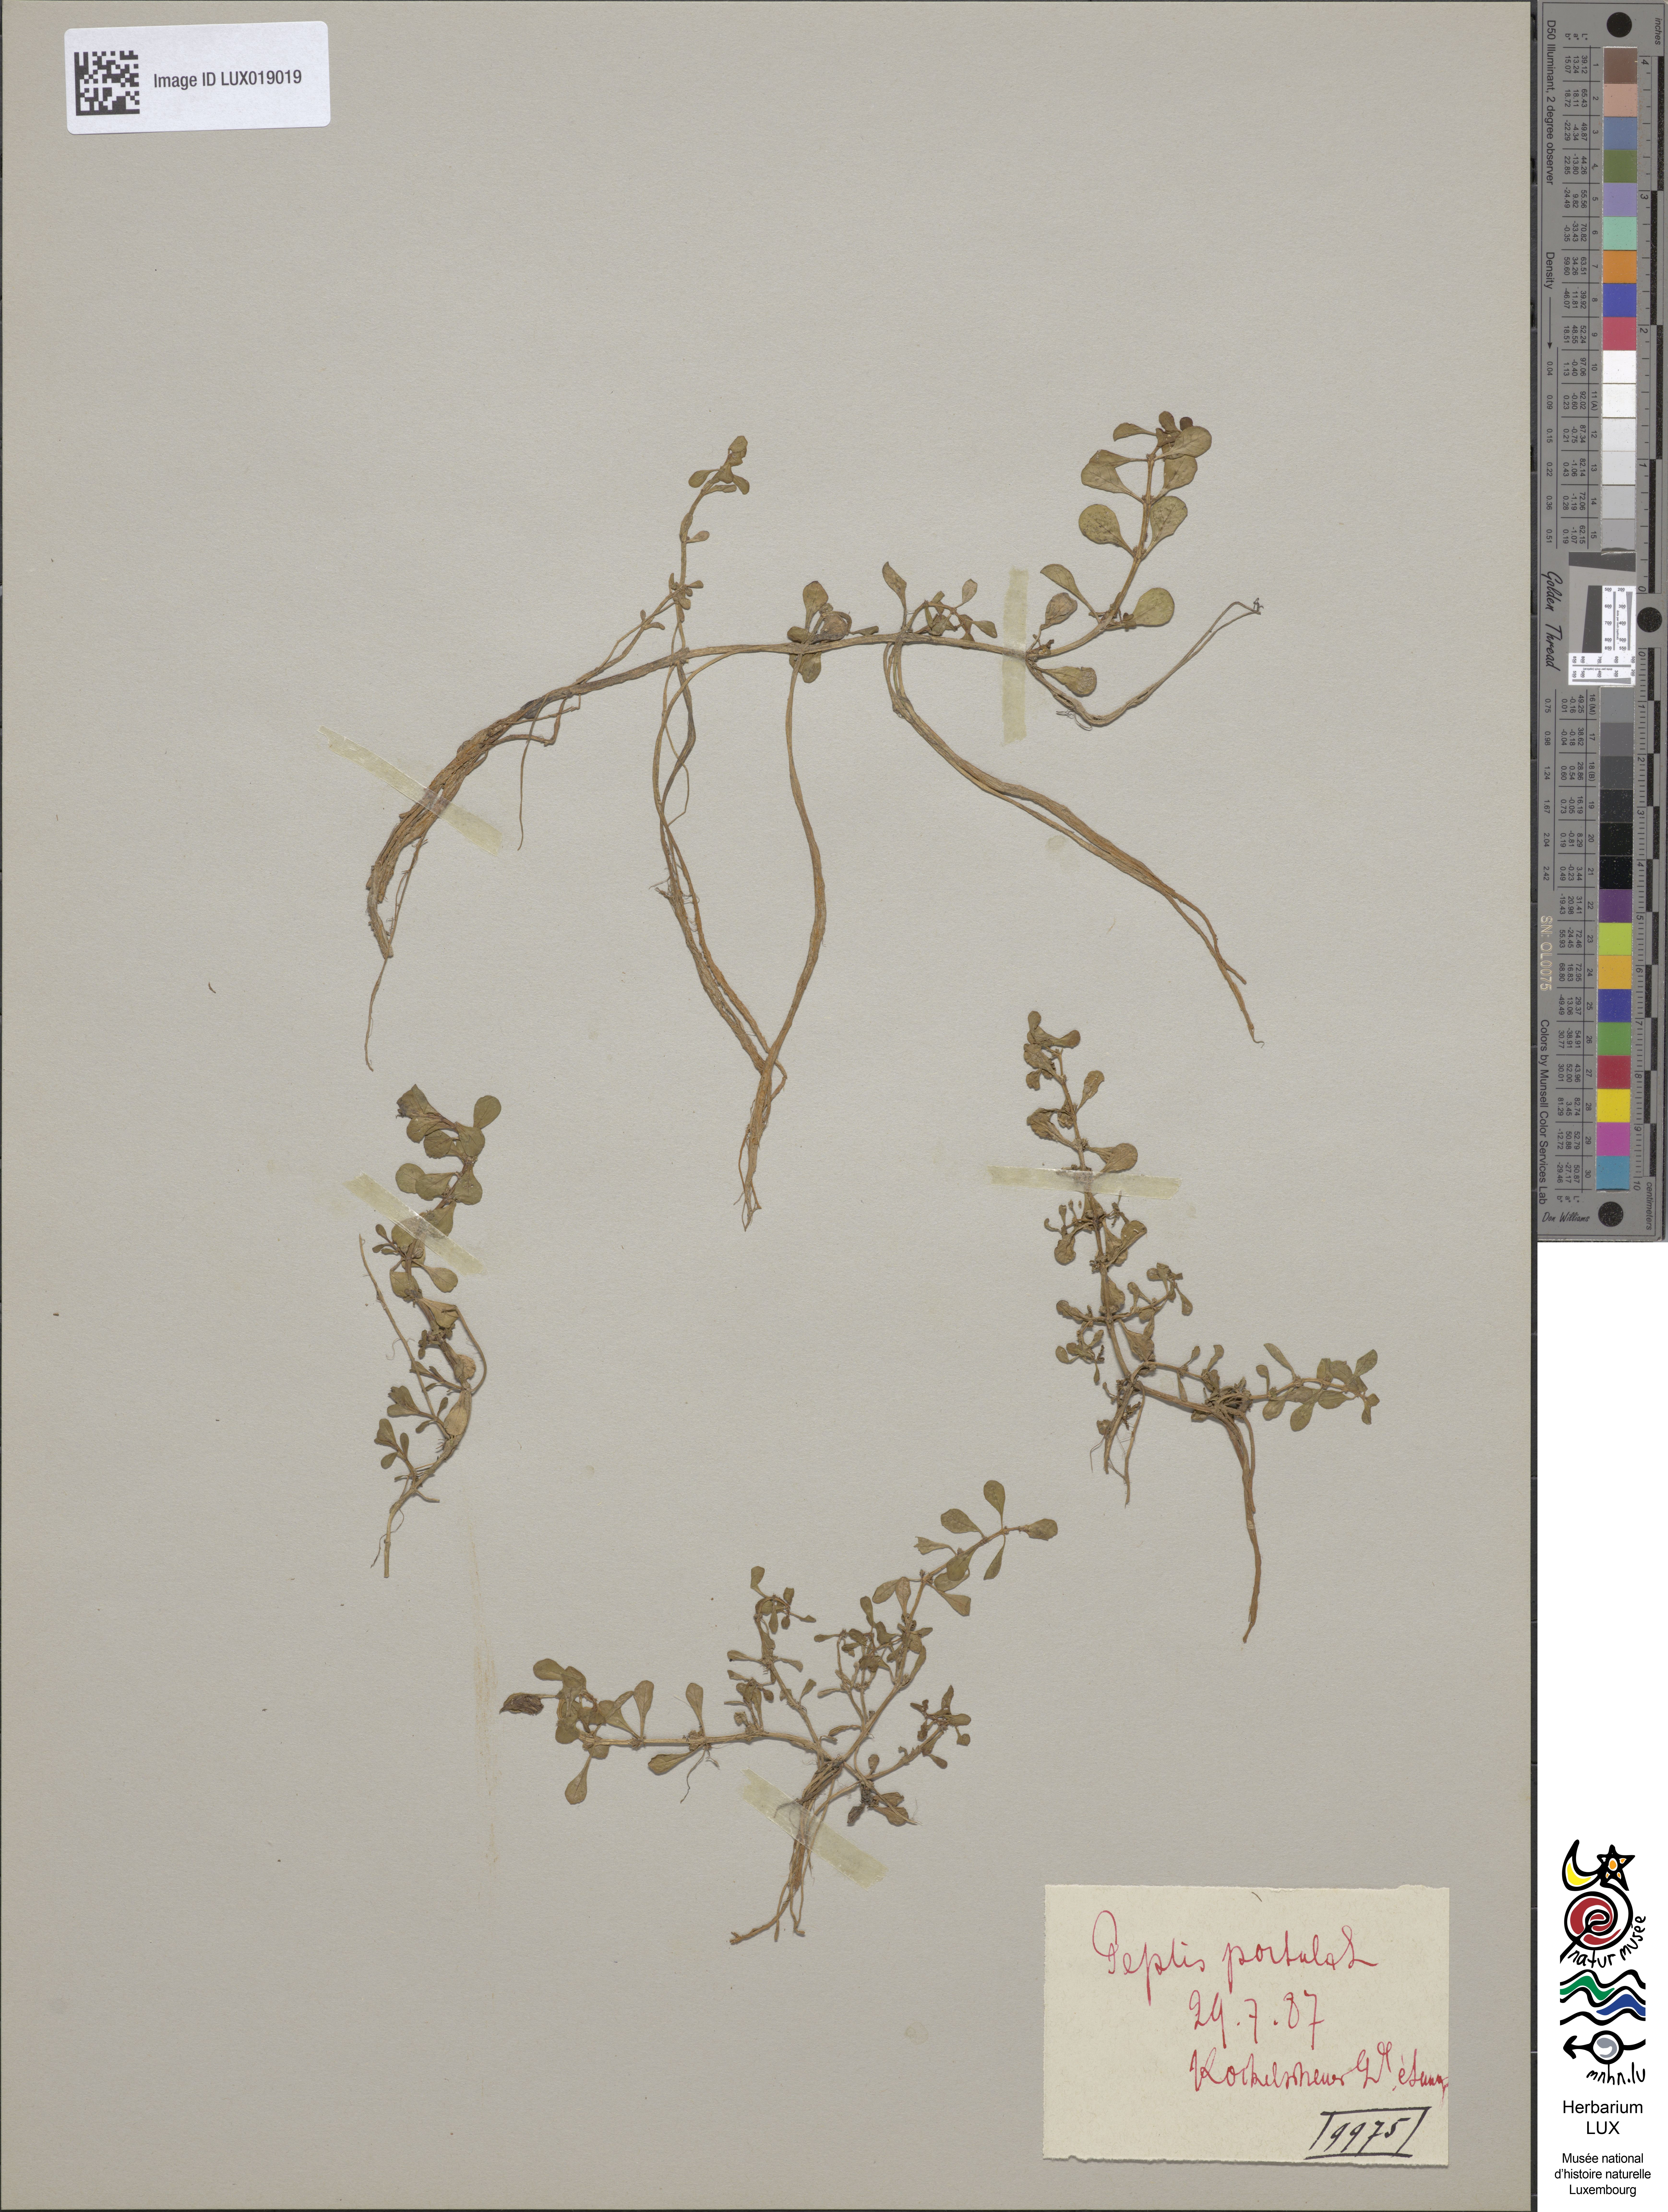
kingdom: Plantae
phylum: Tracheophyta
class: Magnoliopsida
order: Myrtales
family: Lythraceae
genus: Lythrum
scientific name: Lythrum portula
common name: Water purslane
